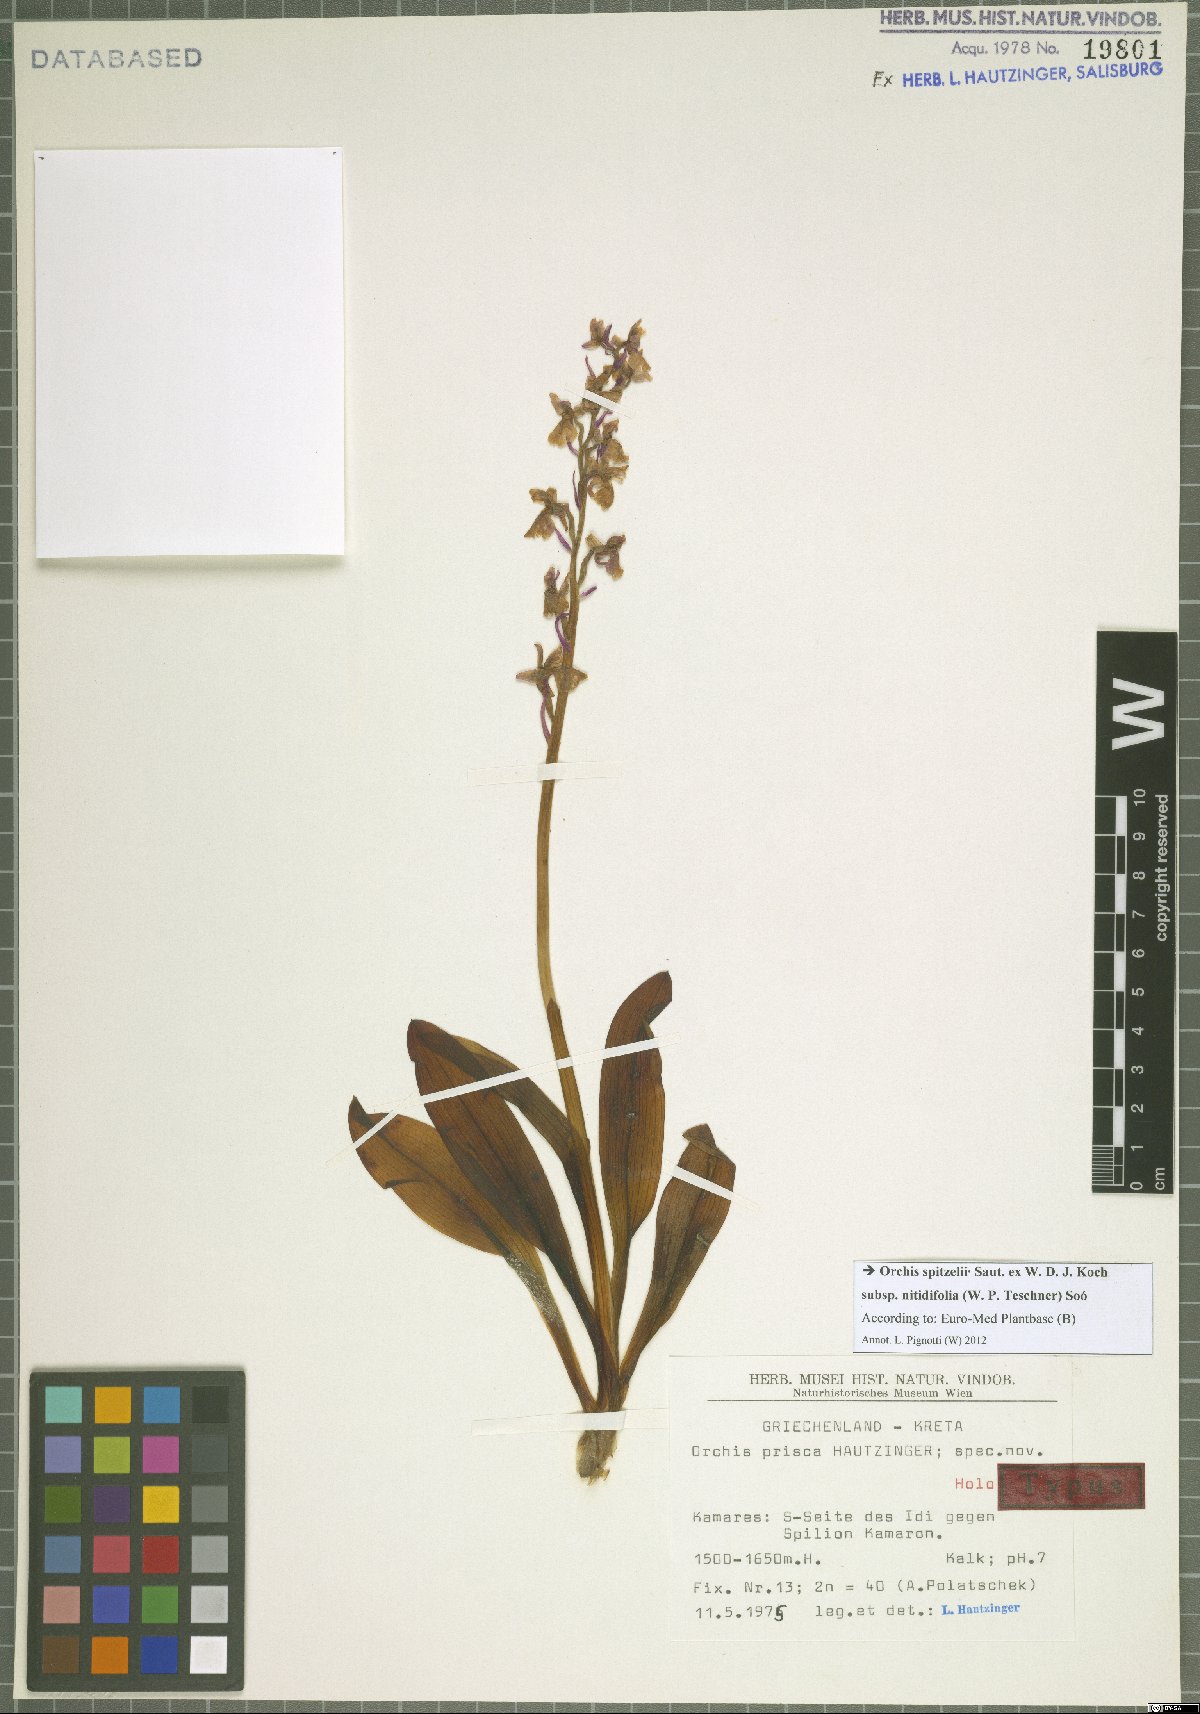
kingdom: Plantae
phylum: Tracheophyta
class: Liliopsida
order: Asparagales
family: Orchidaceae
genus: Orchis
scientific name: Orchis spitzelii
